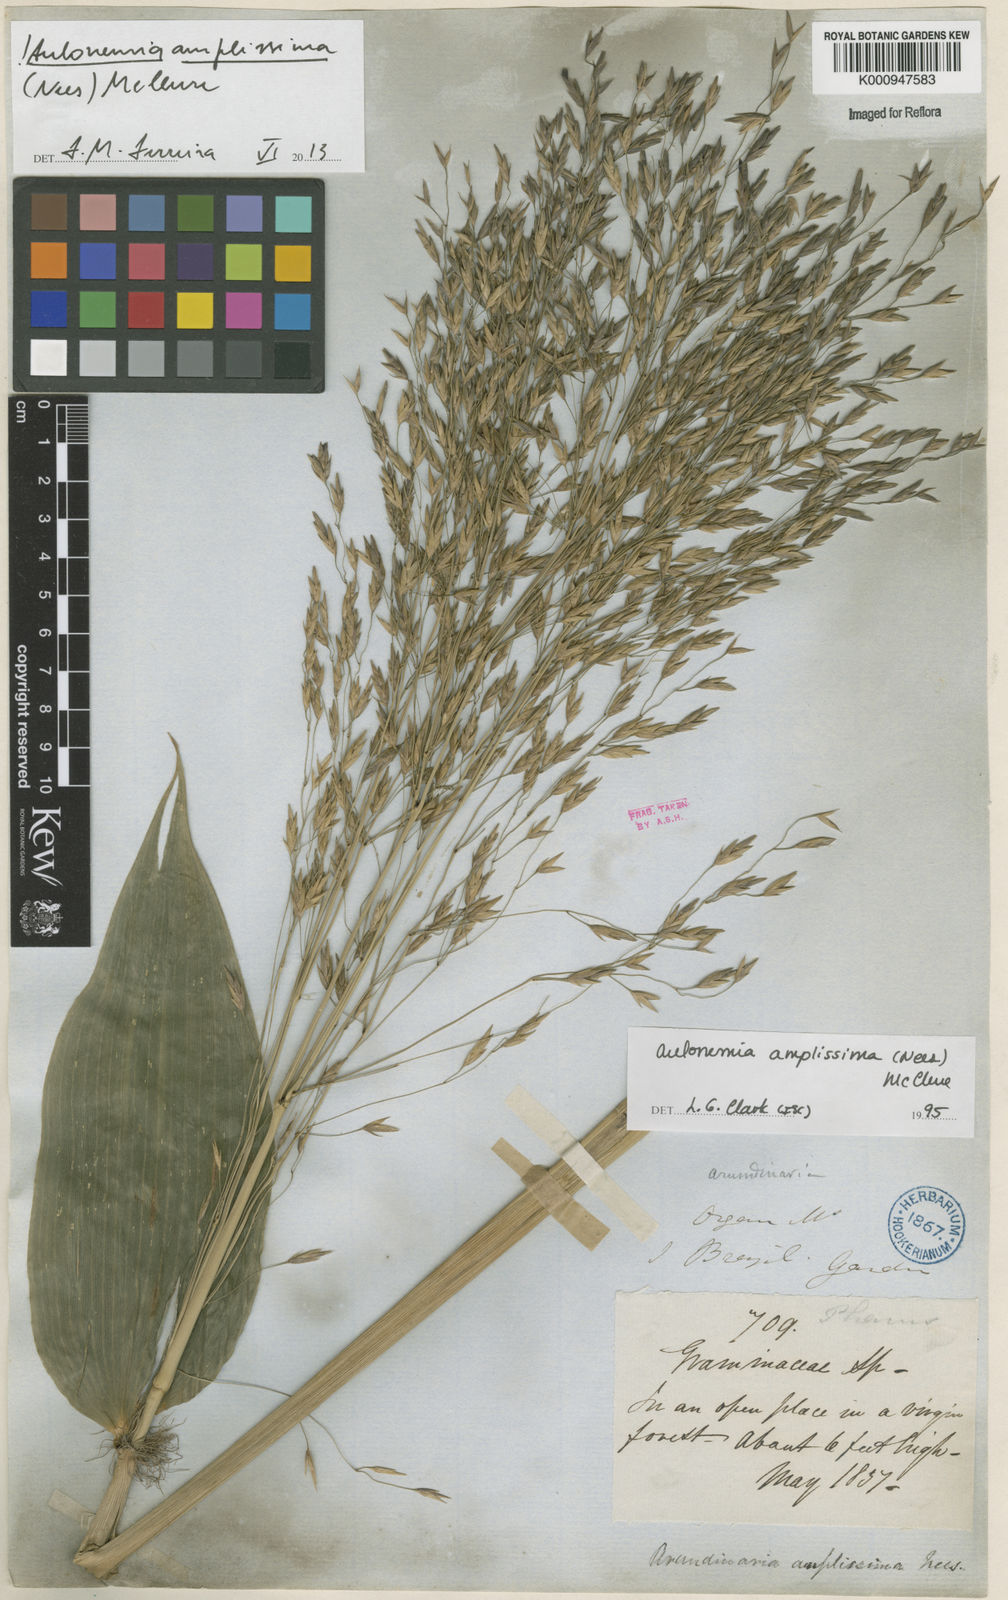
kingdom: Plantae
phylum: Tracheophyta
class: Liliopsida
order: Poales
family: Poaceae
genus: Aulonemia
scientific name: Aulonemia amplissima
